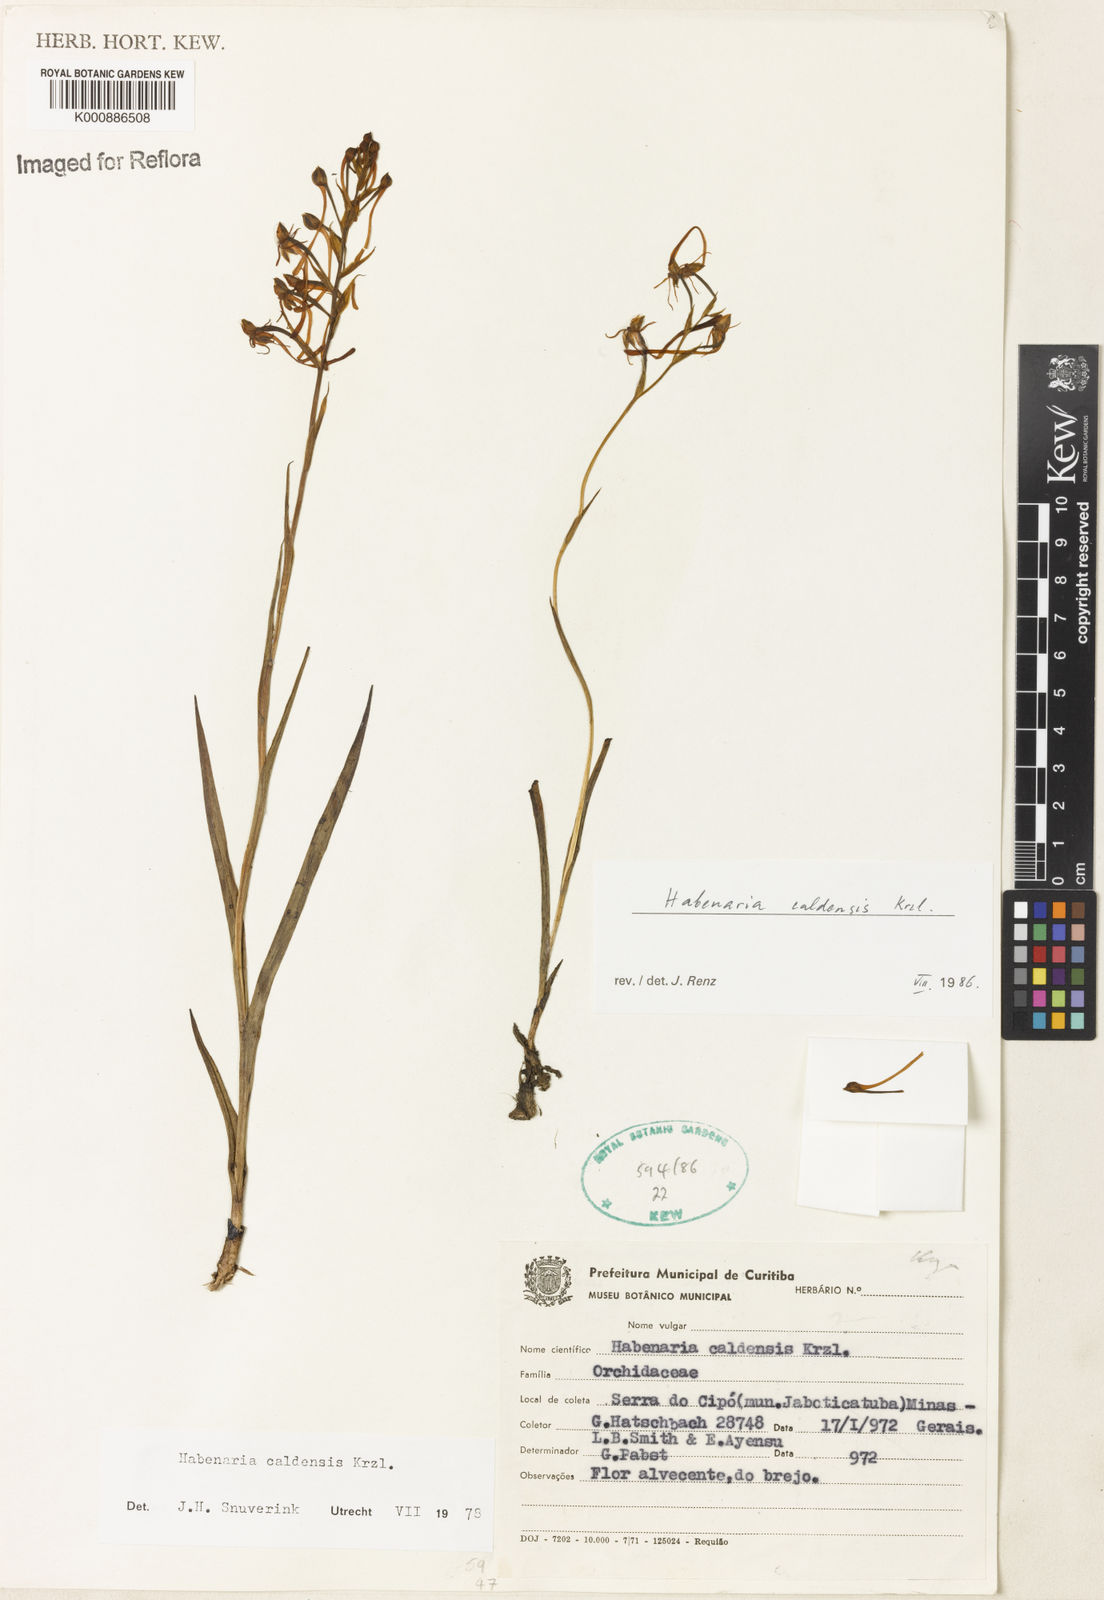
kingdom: Plantae
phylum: Tracheophyta
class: Liliopsida
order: Asparagales
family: Orchidaceae
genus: Habenaria
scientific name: Habenaria caldensis
